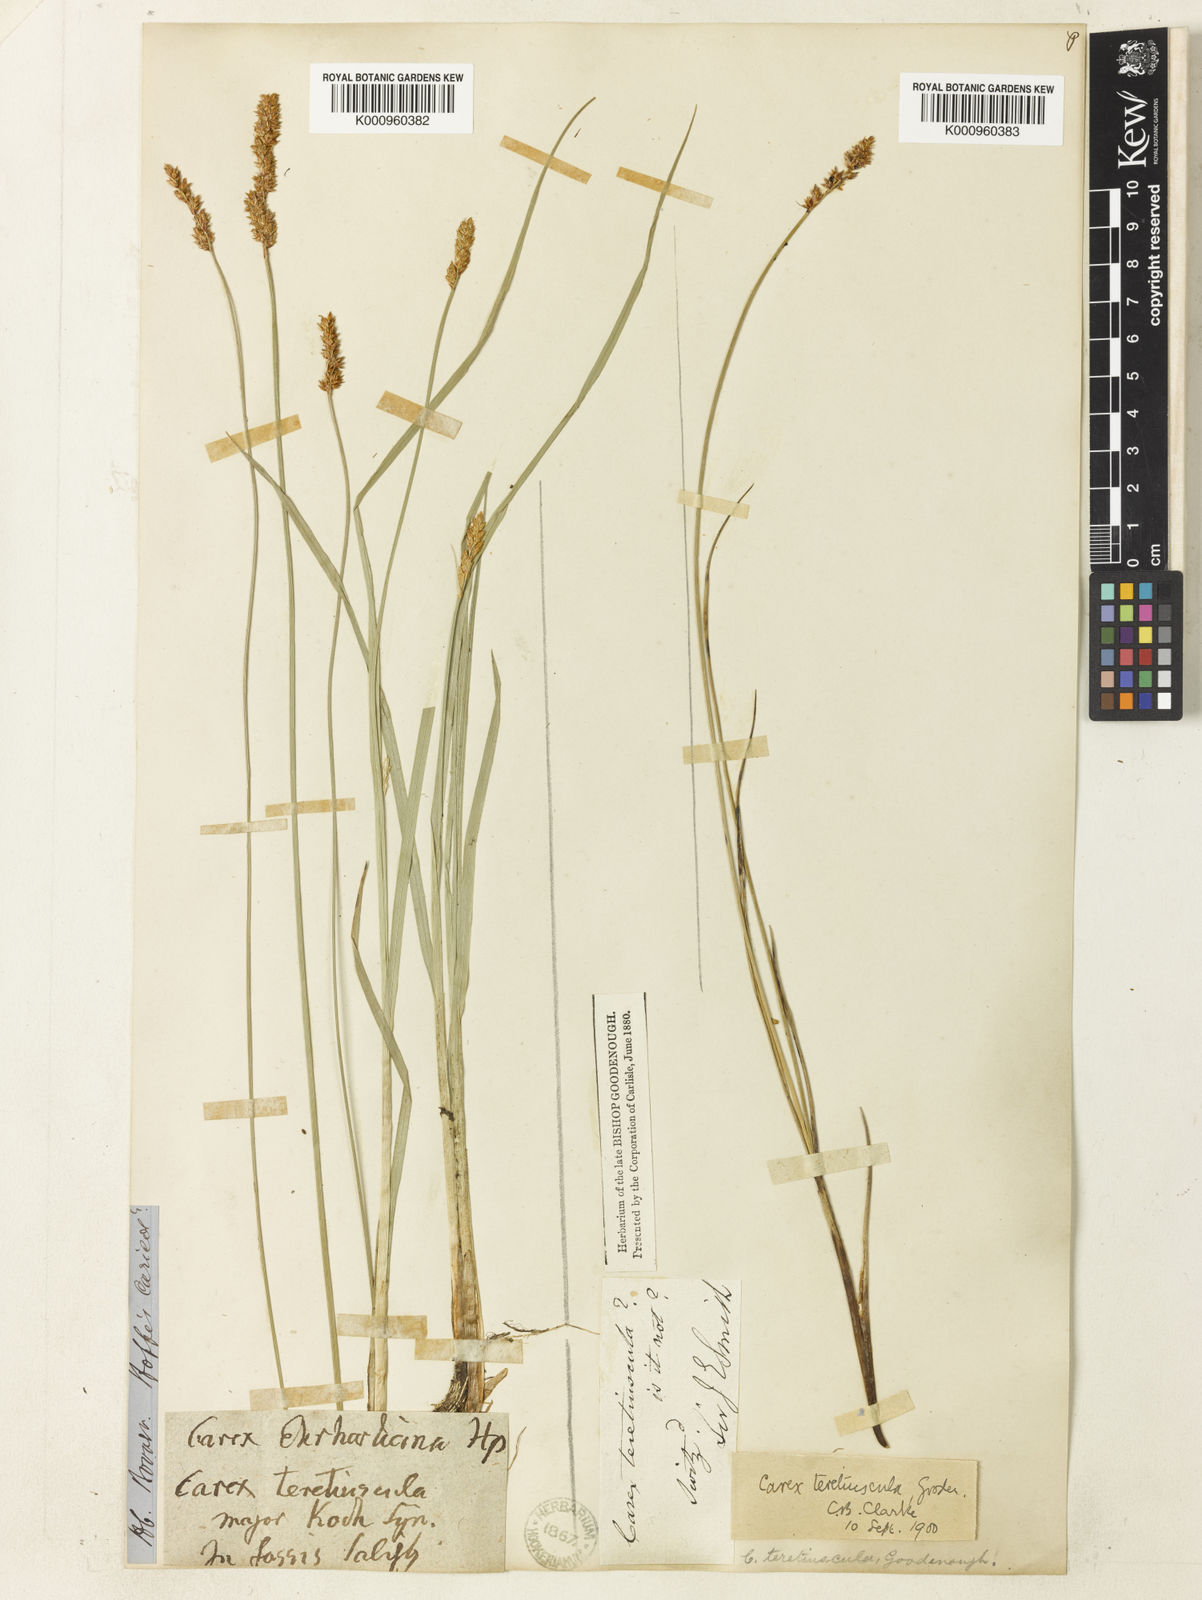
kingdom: Plantae
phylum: Tracheophyta
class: Liliopsida
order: Poales
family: Cyperaceae
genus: Carex
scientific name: Carex diandra
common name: Lesser tussock-sedge
